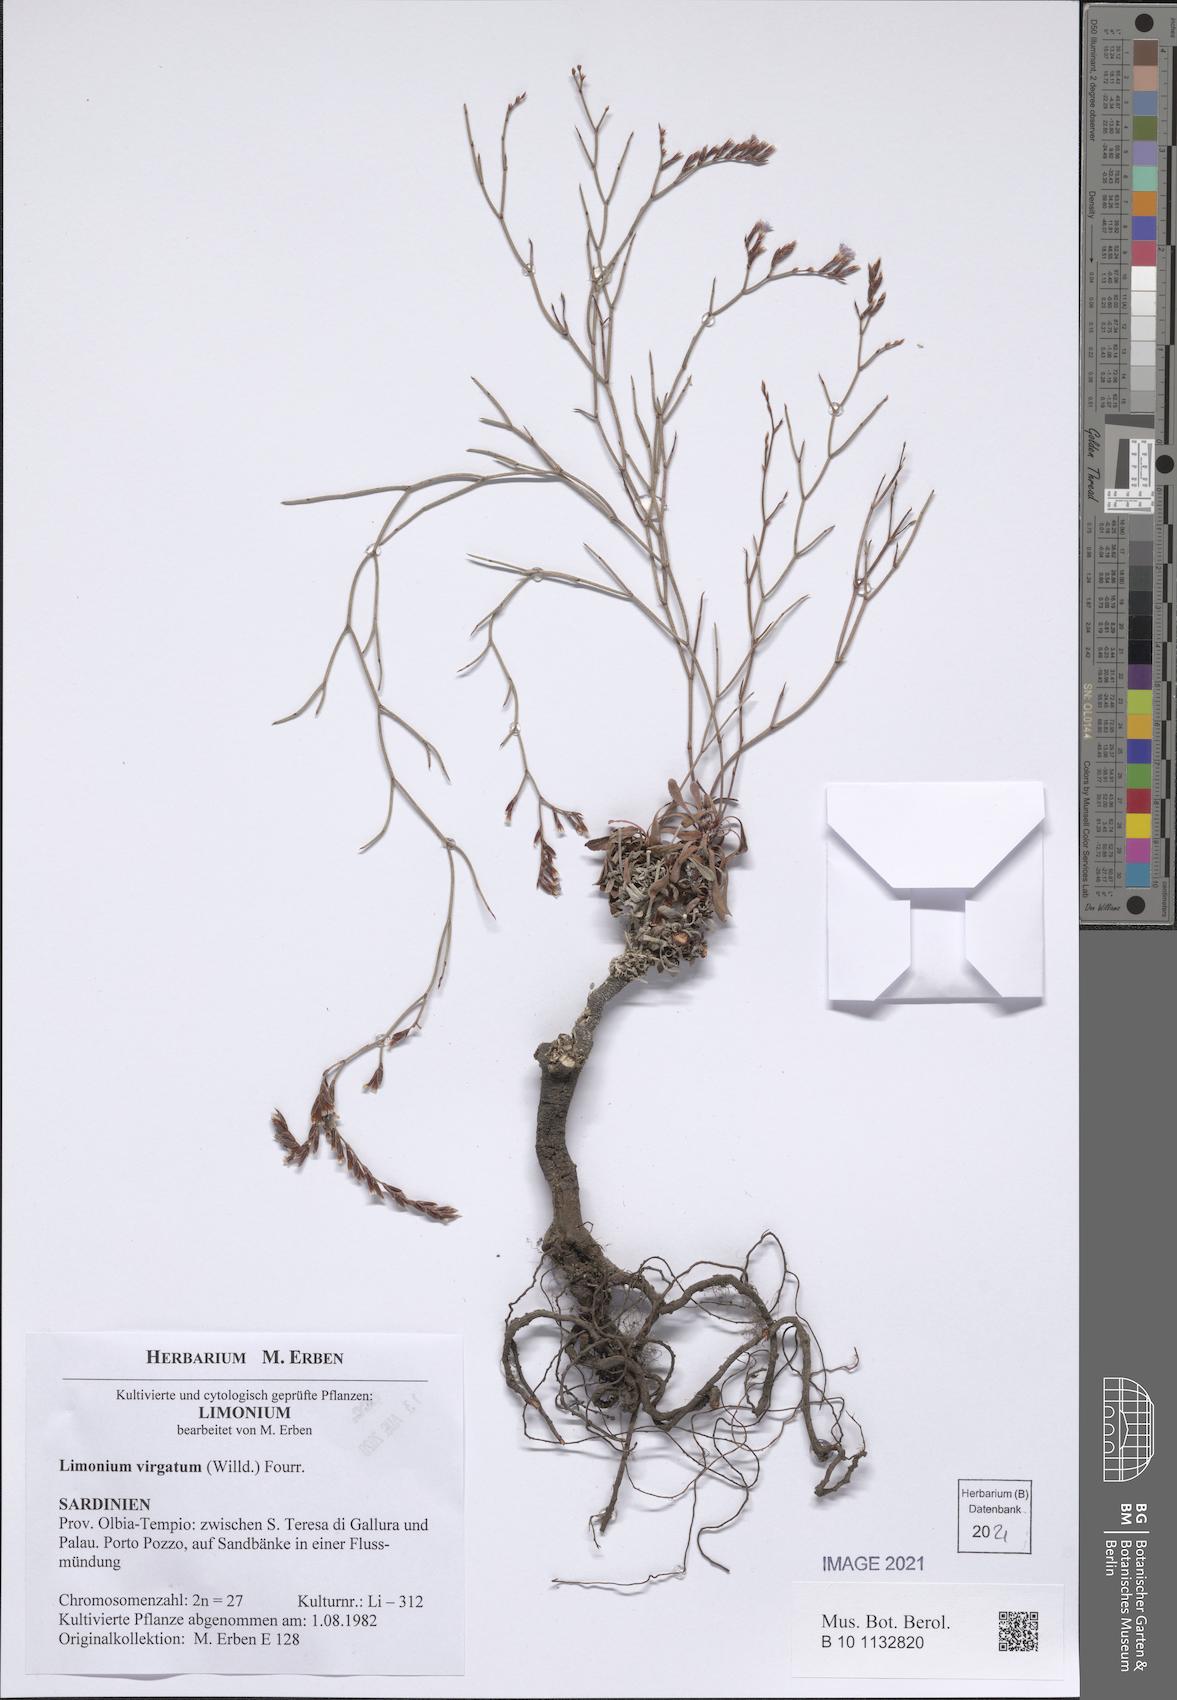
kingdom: Plantae
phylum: Tracheophyta
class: Magnoliopsida
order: Caryophyllales
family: Plumbaginaceae
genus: Limonium
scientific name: Limonium virgatum
